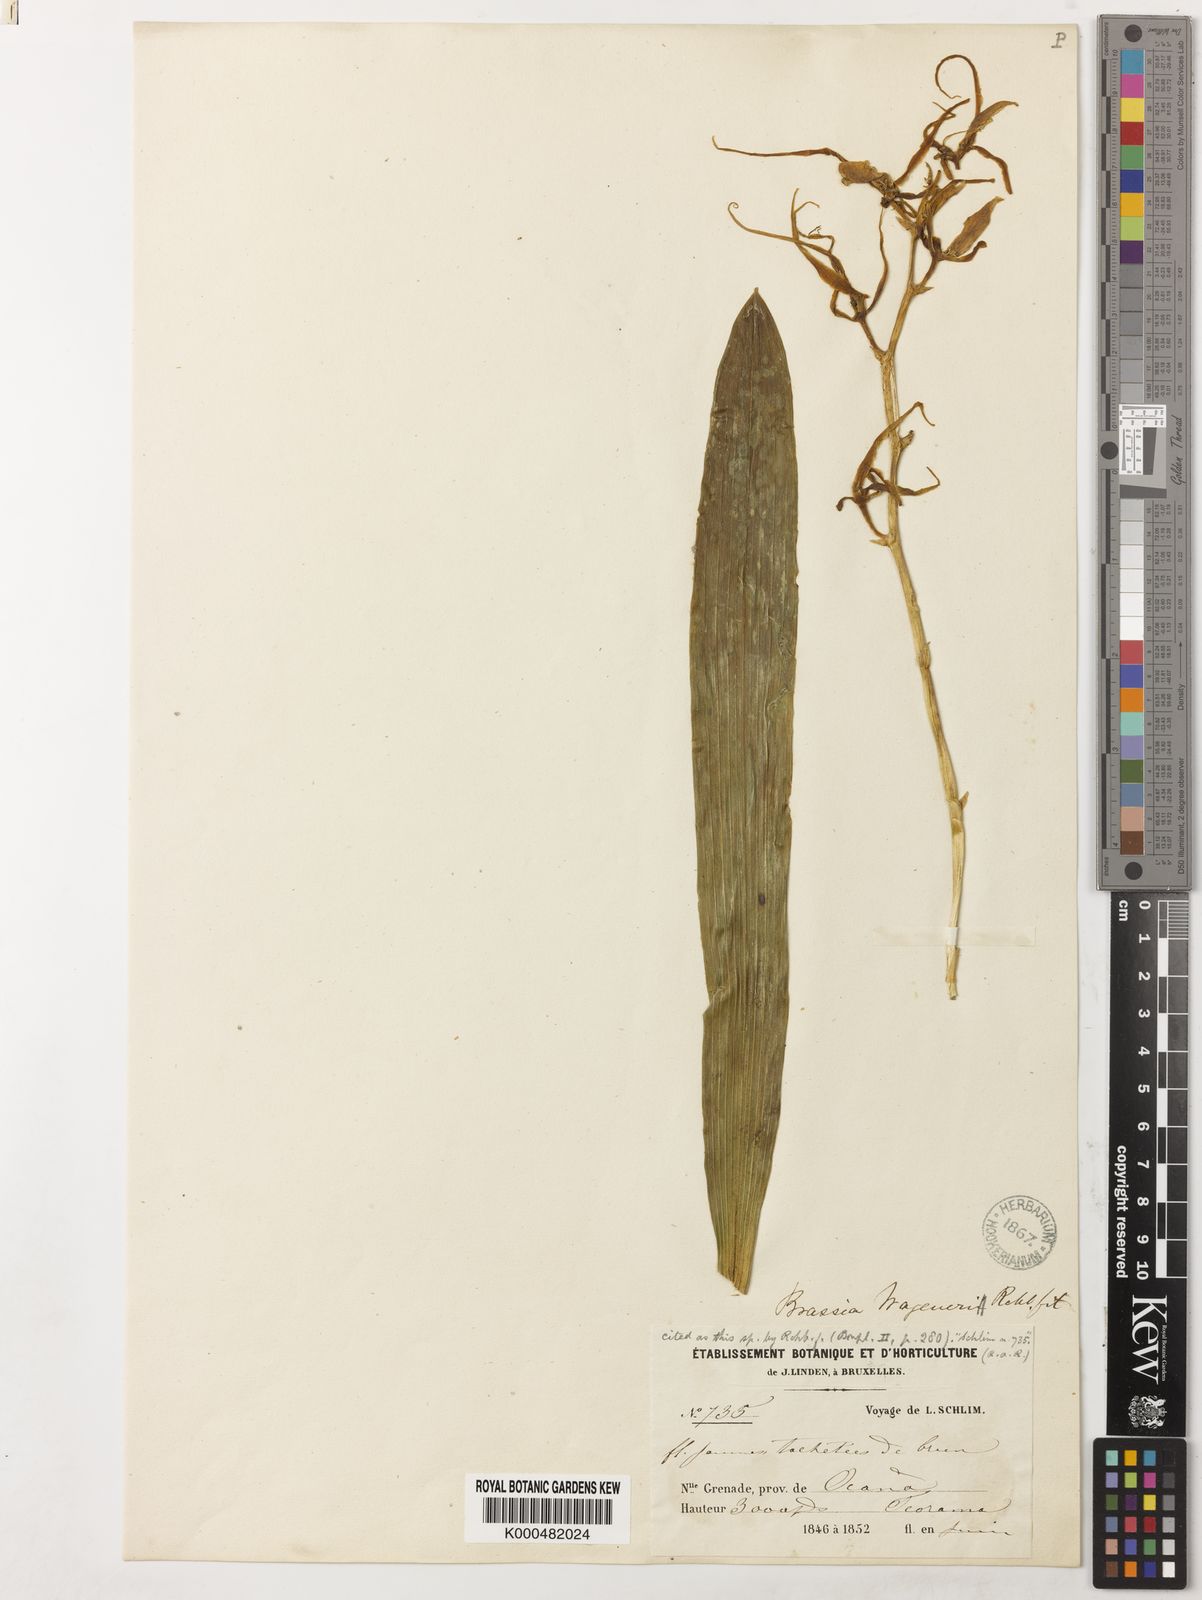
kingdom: Plantae
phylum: Tracheophyta
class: Liliopsida
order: Asparagales
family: Orchidaceae
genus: Brassia
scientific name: Brassia wageneri
